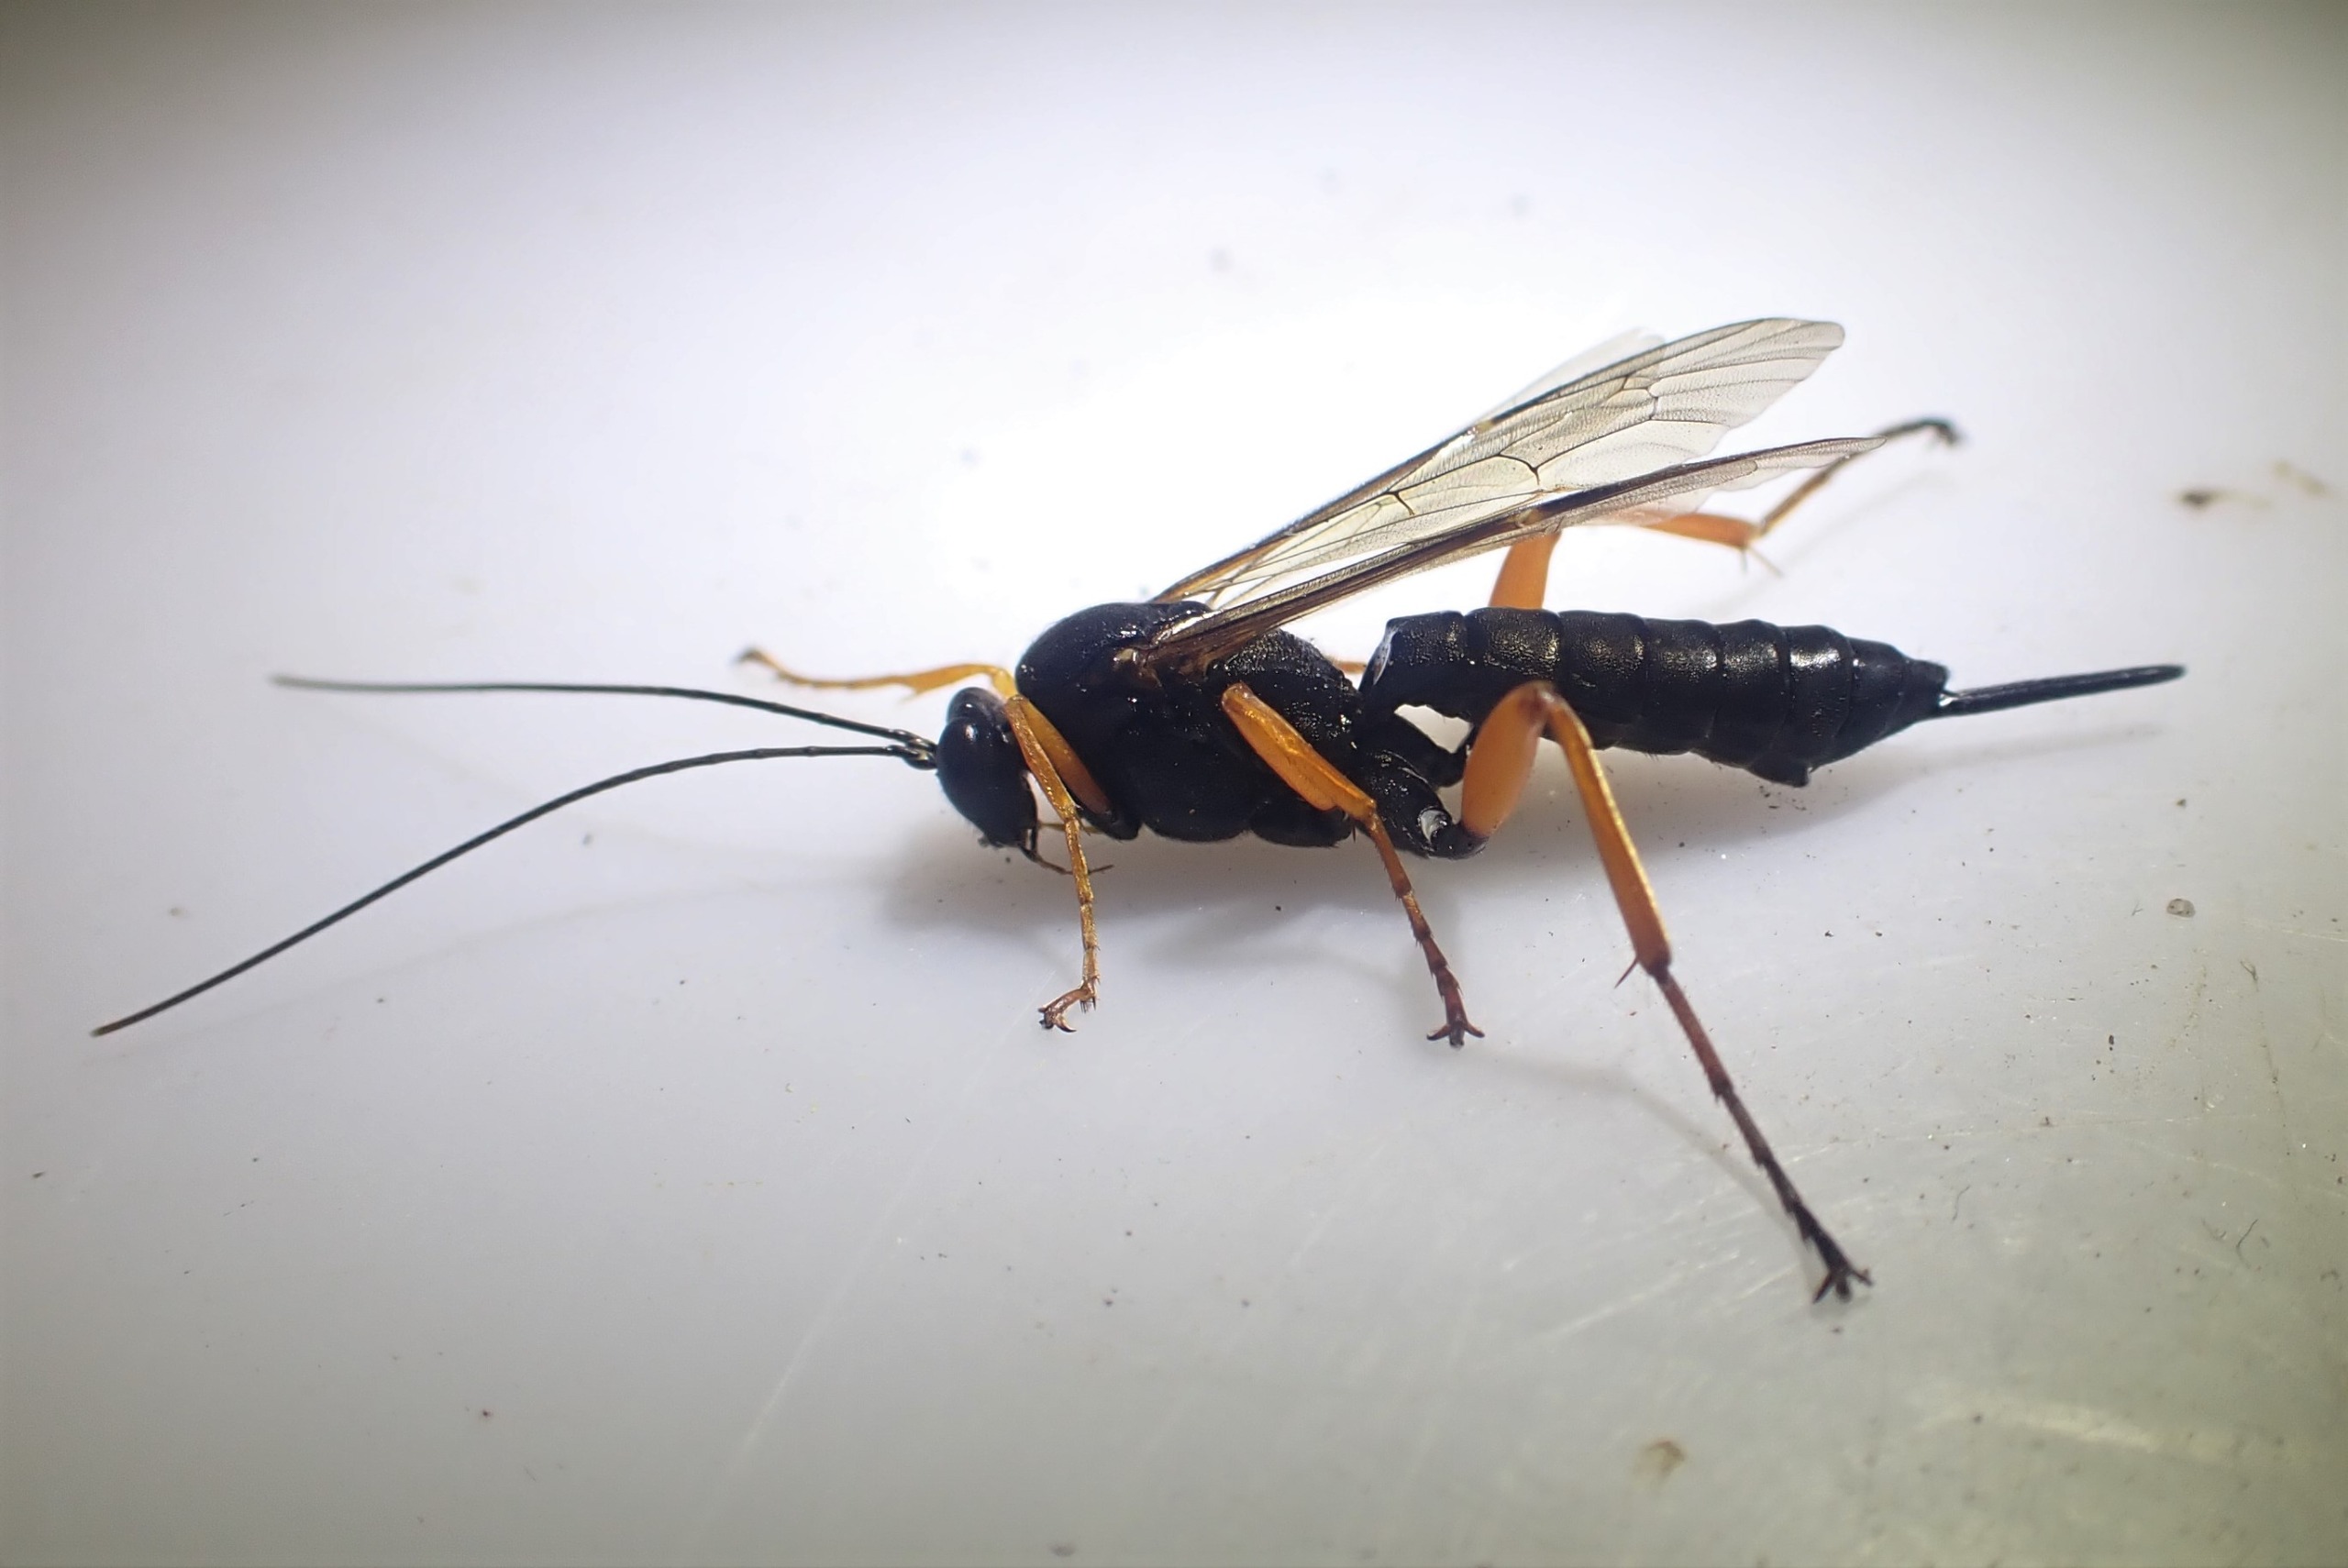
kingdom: Animalia
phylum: Arthropoda
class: Insecta
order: Hymenoptera
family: Ichneumonidae
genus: Pimpla
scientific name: Pimpla rufipes
